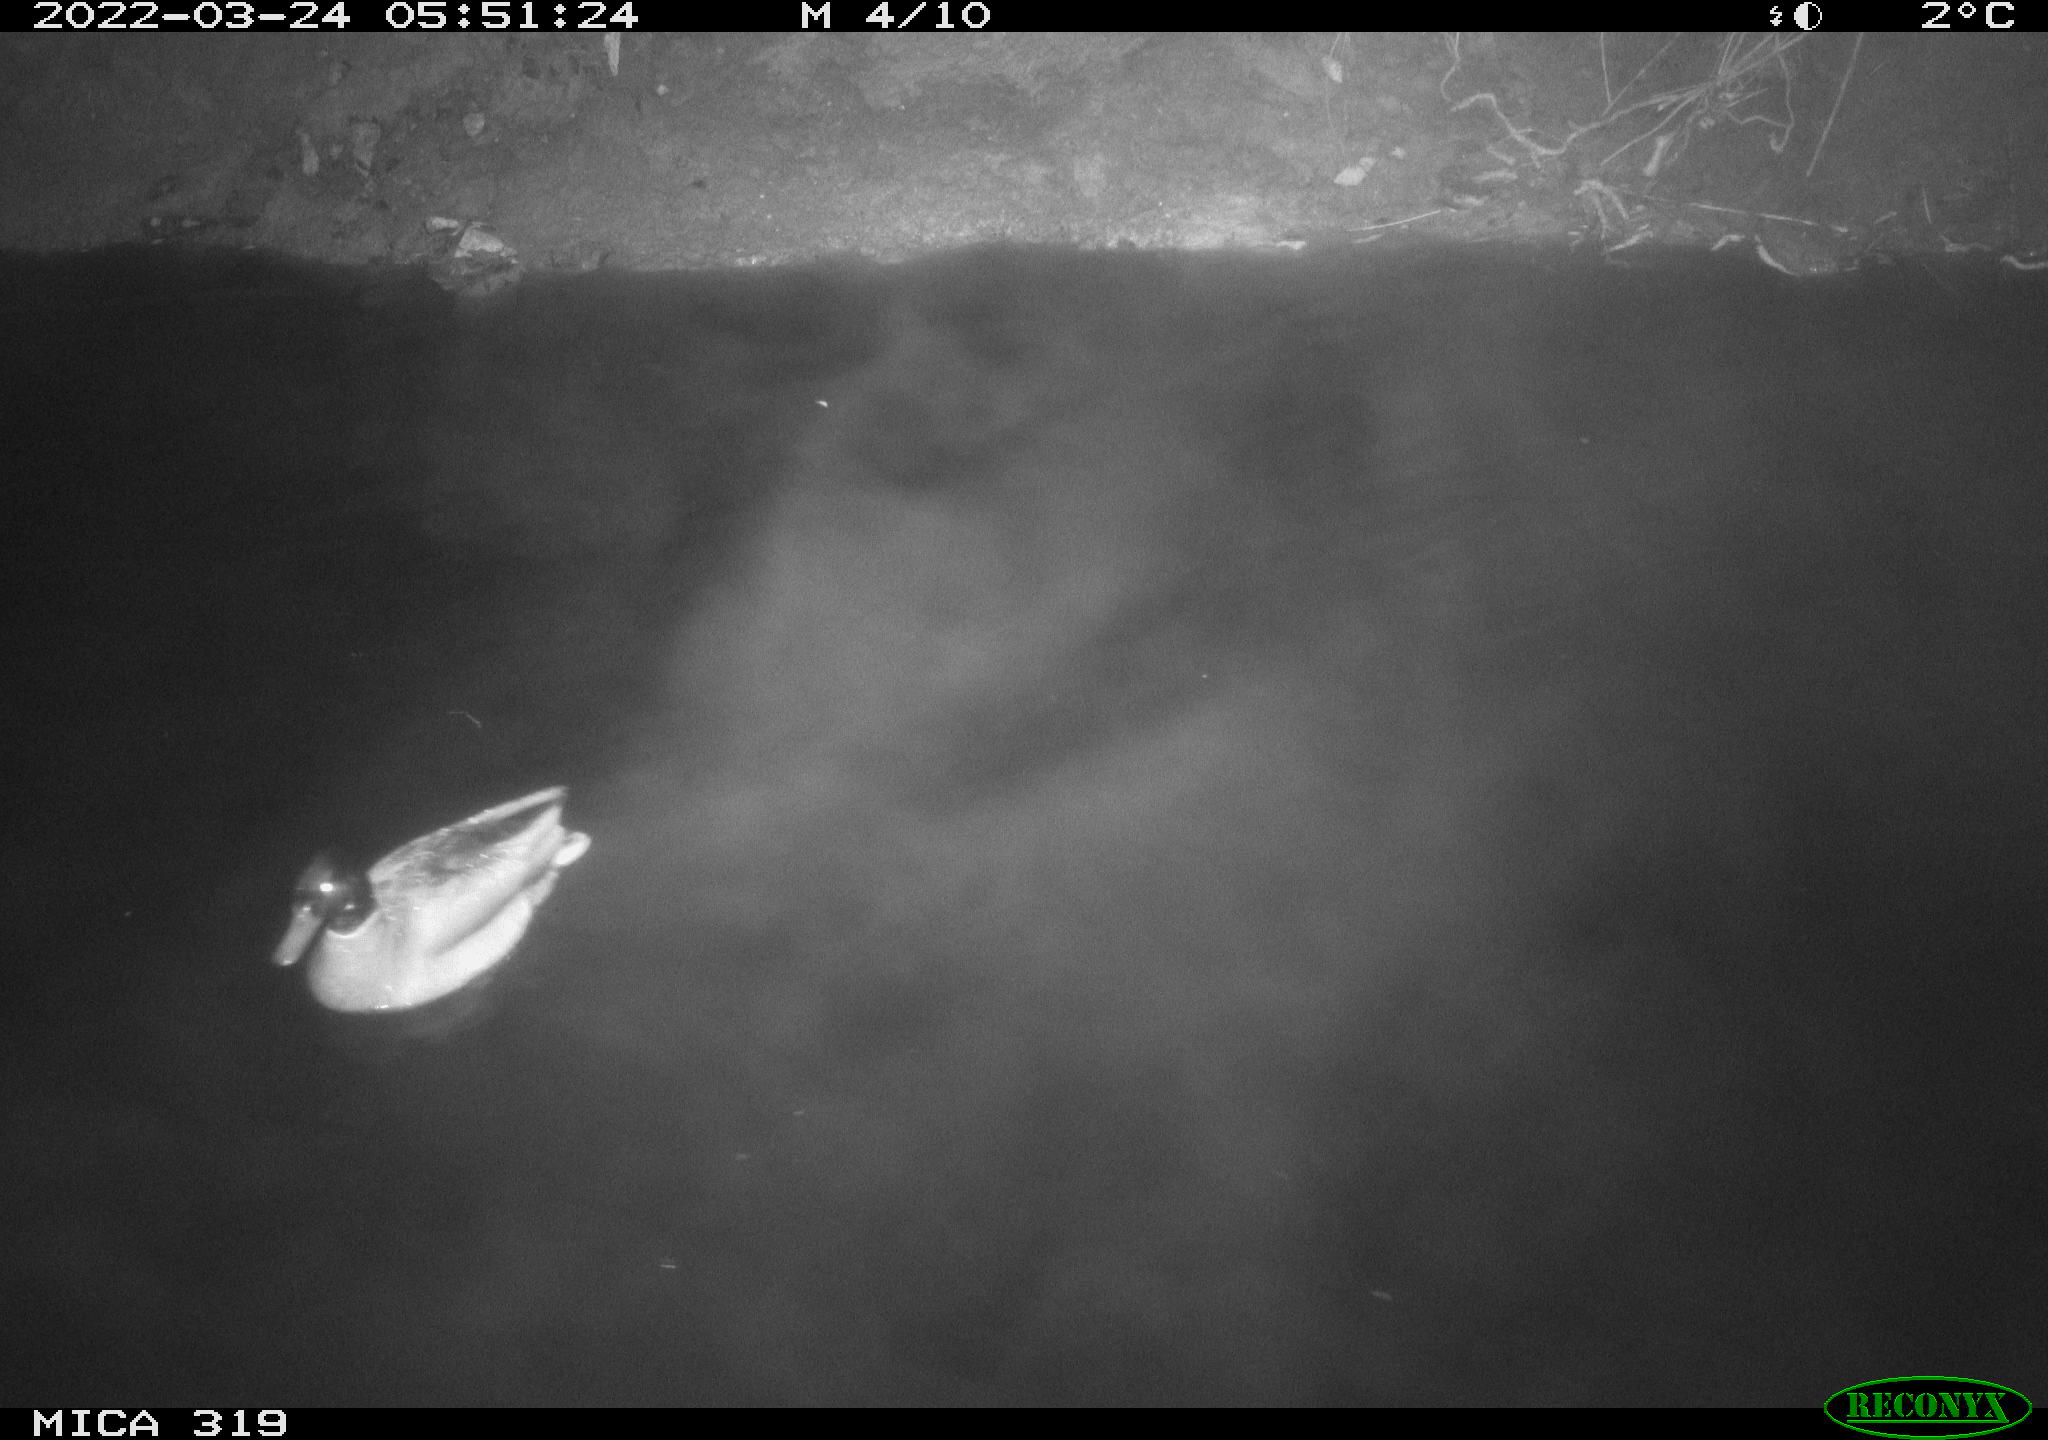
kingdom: Animalia
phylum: Chordata
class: Aves
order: Anseriformes
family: Anatidae
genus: Anas
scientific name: Anas platyrhynchos
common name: Mallard
